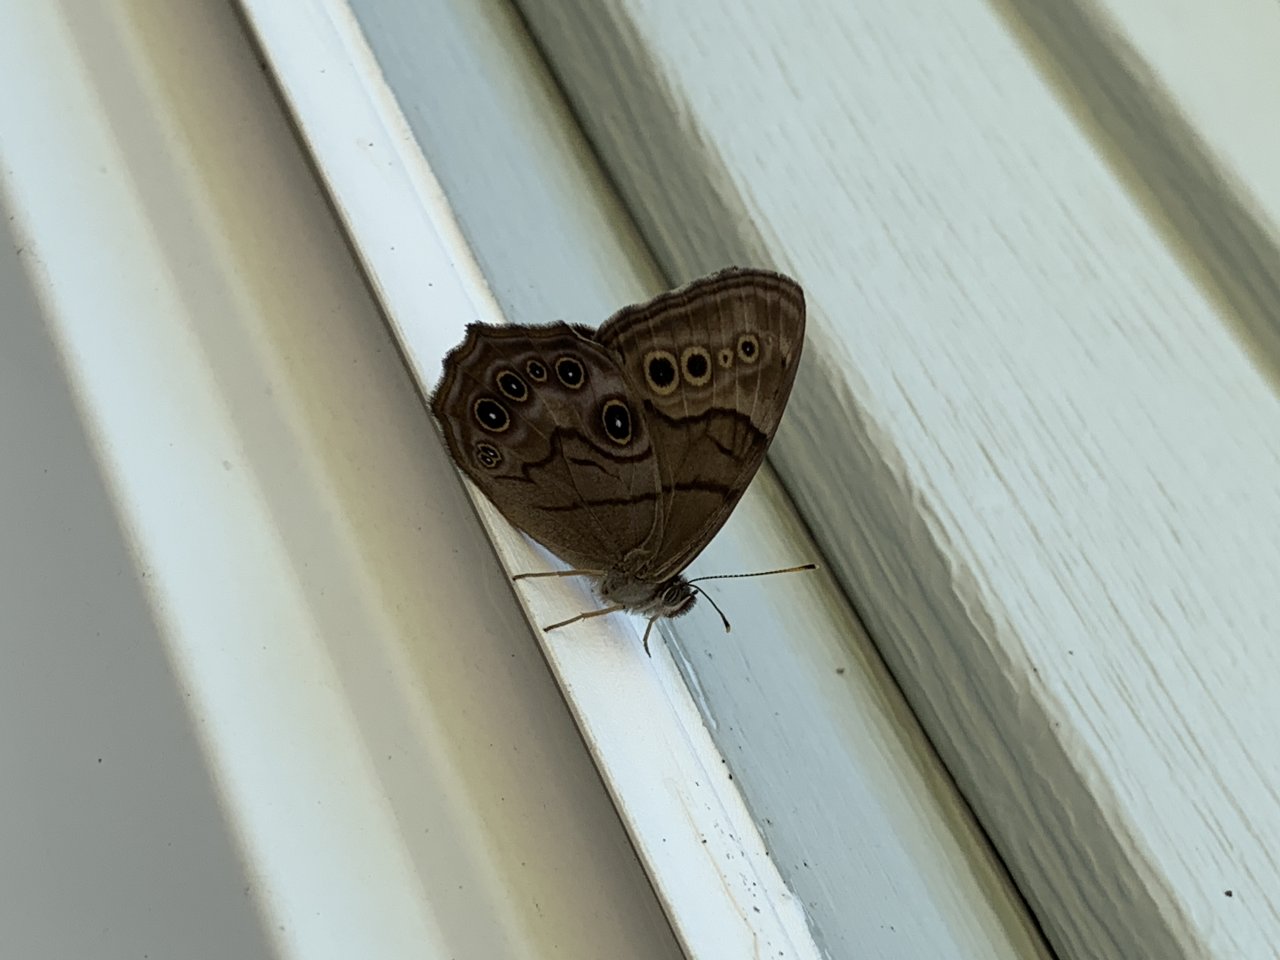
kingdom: Animalia
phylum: Arthropoda
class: Insecta
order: Lepidoptera
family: Nymphalidae
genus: Lethe
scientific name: Lethe anthedon
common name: Northern Pearly-Eye
